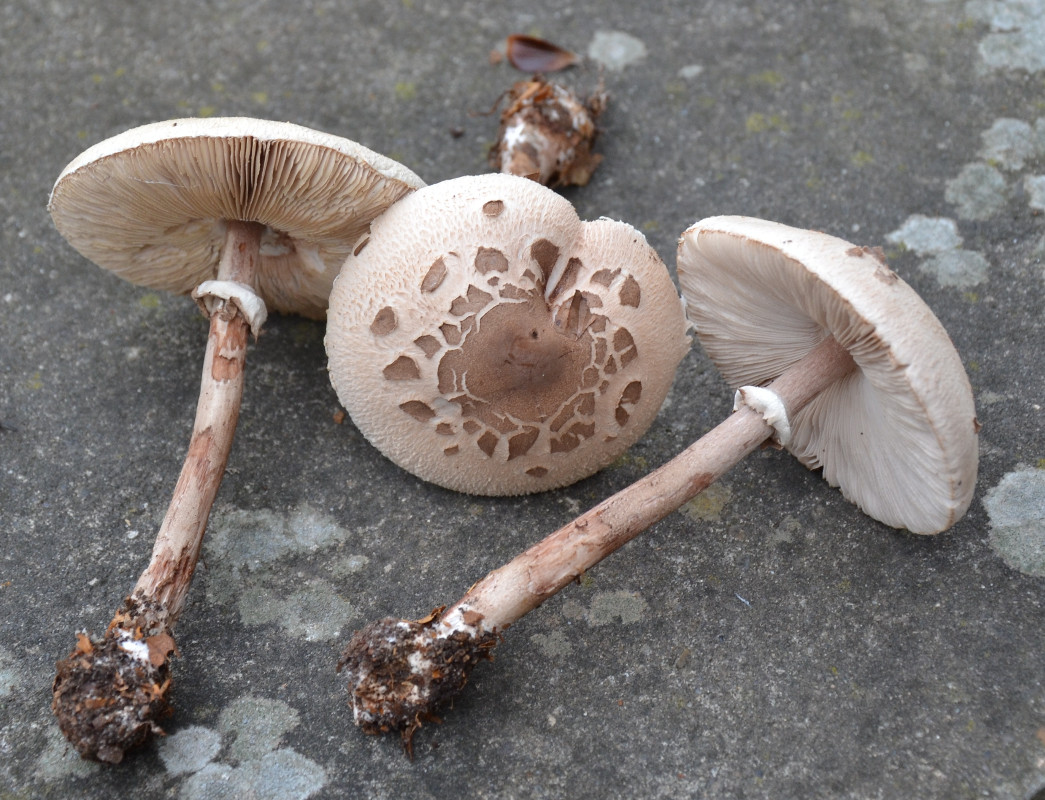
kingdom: Fungi
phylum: Basidiomycota
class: Agaricomycetes
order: Agaricales
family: Agaricaceae
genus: Macrolepiota
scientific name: Macrolepiota mastoidea
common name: puklet kæmpeparasolhat
